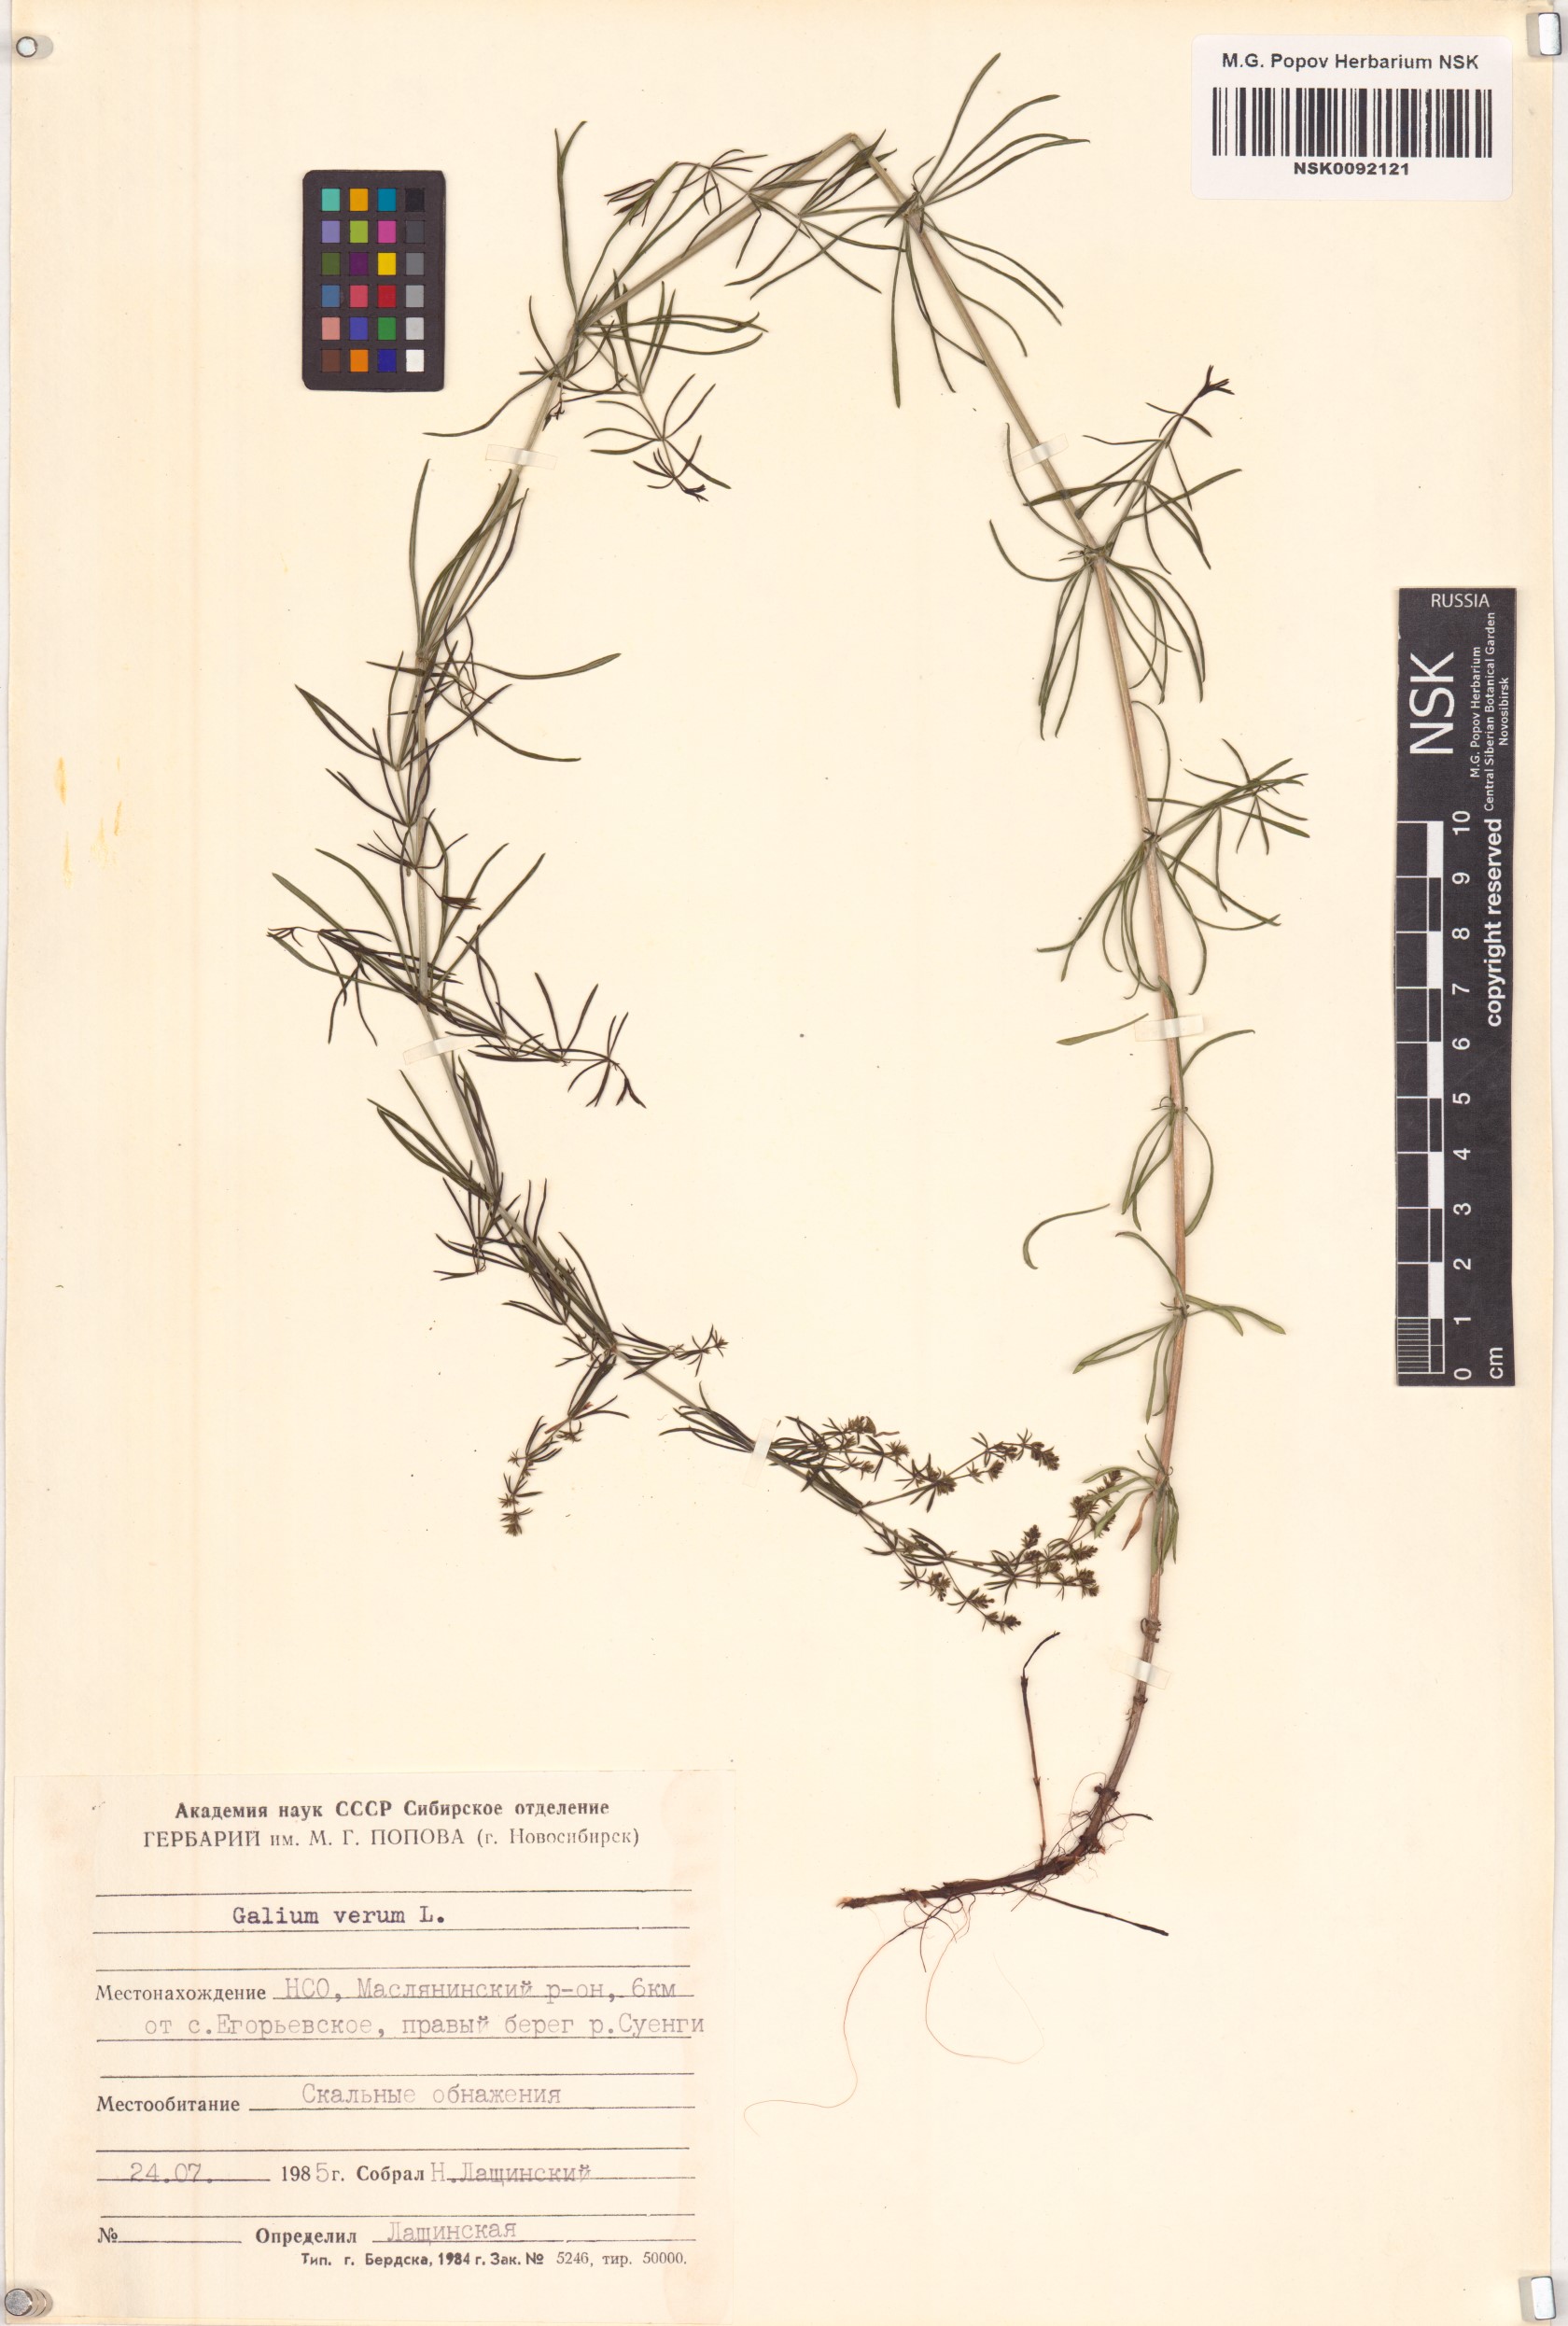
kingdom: Plantae
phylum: Tracheophyta
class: Magnoliopsida
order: Gentianales
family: Rubiaceae
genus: Galium
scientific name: Galium verum
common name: Lady's bedstraw
